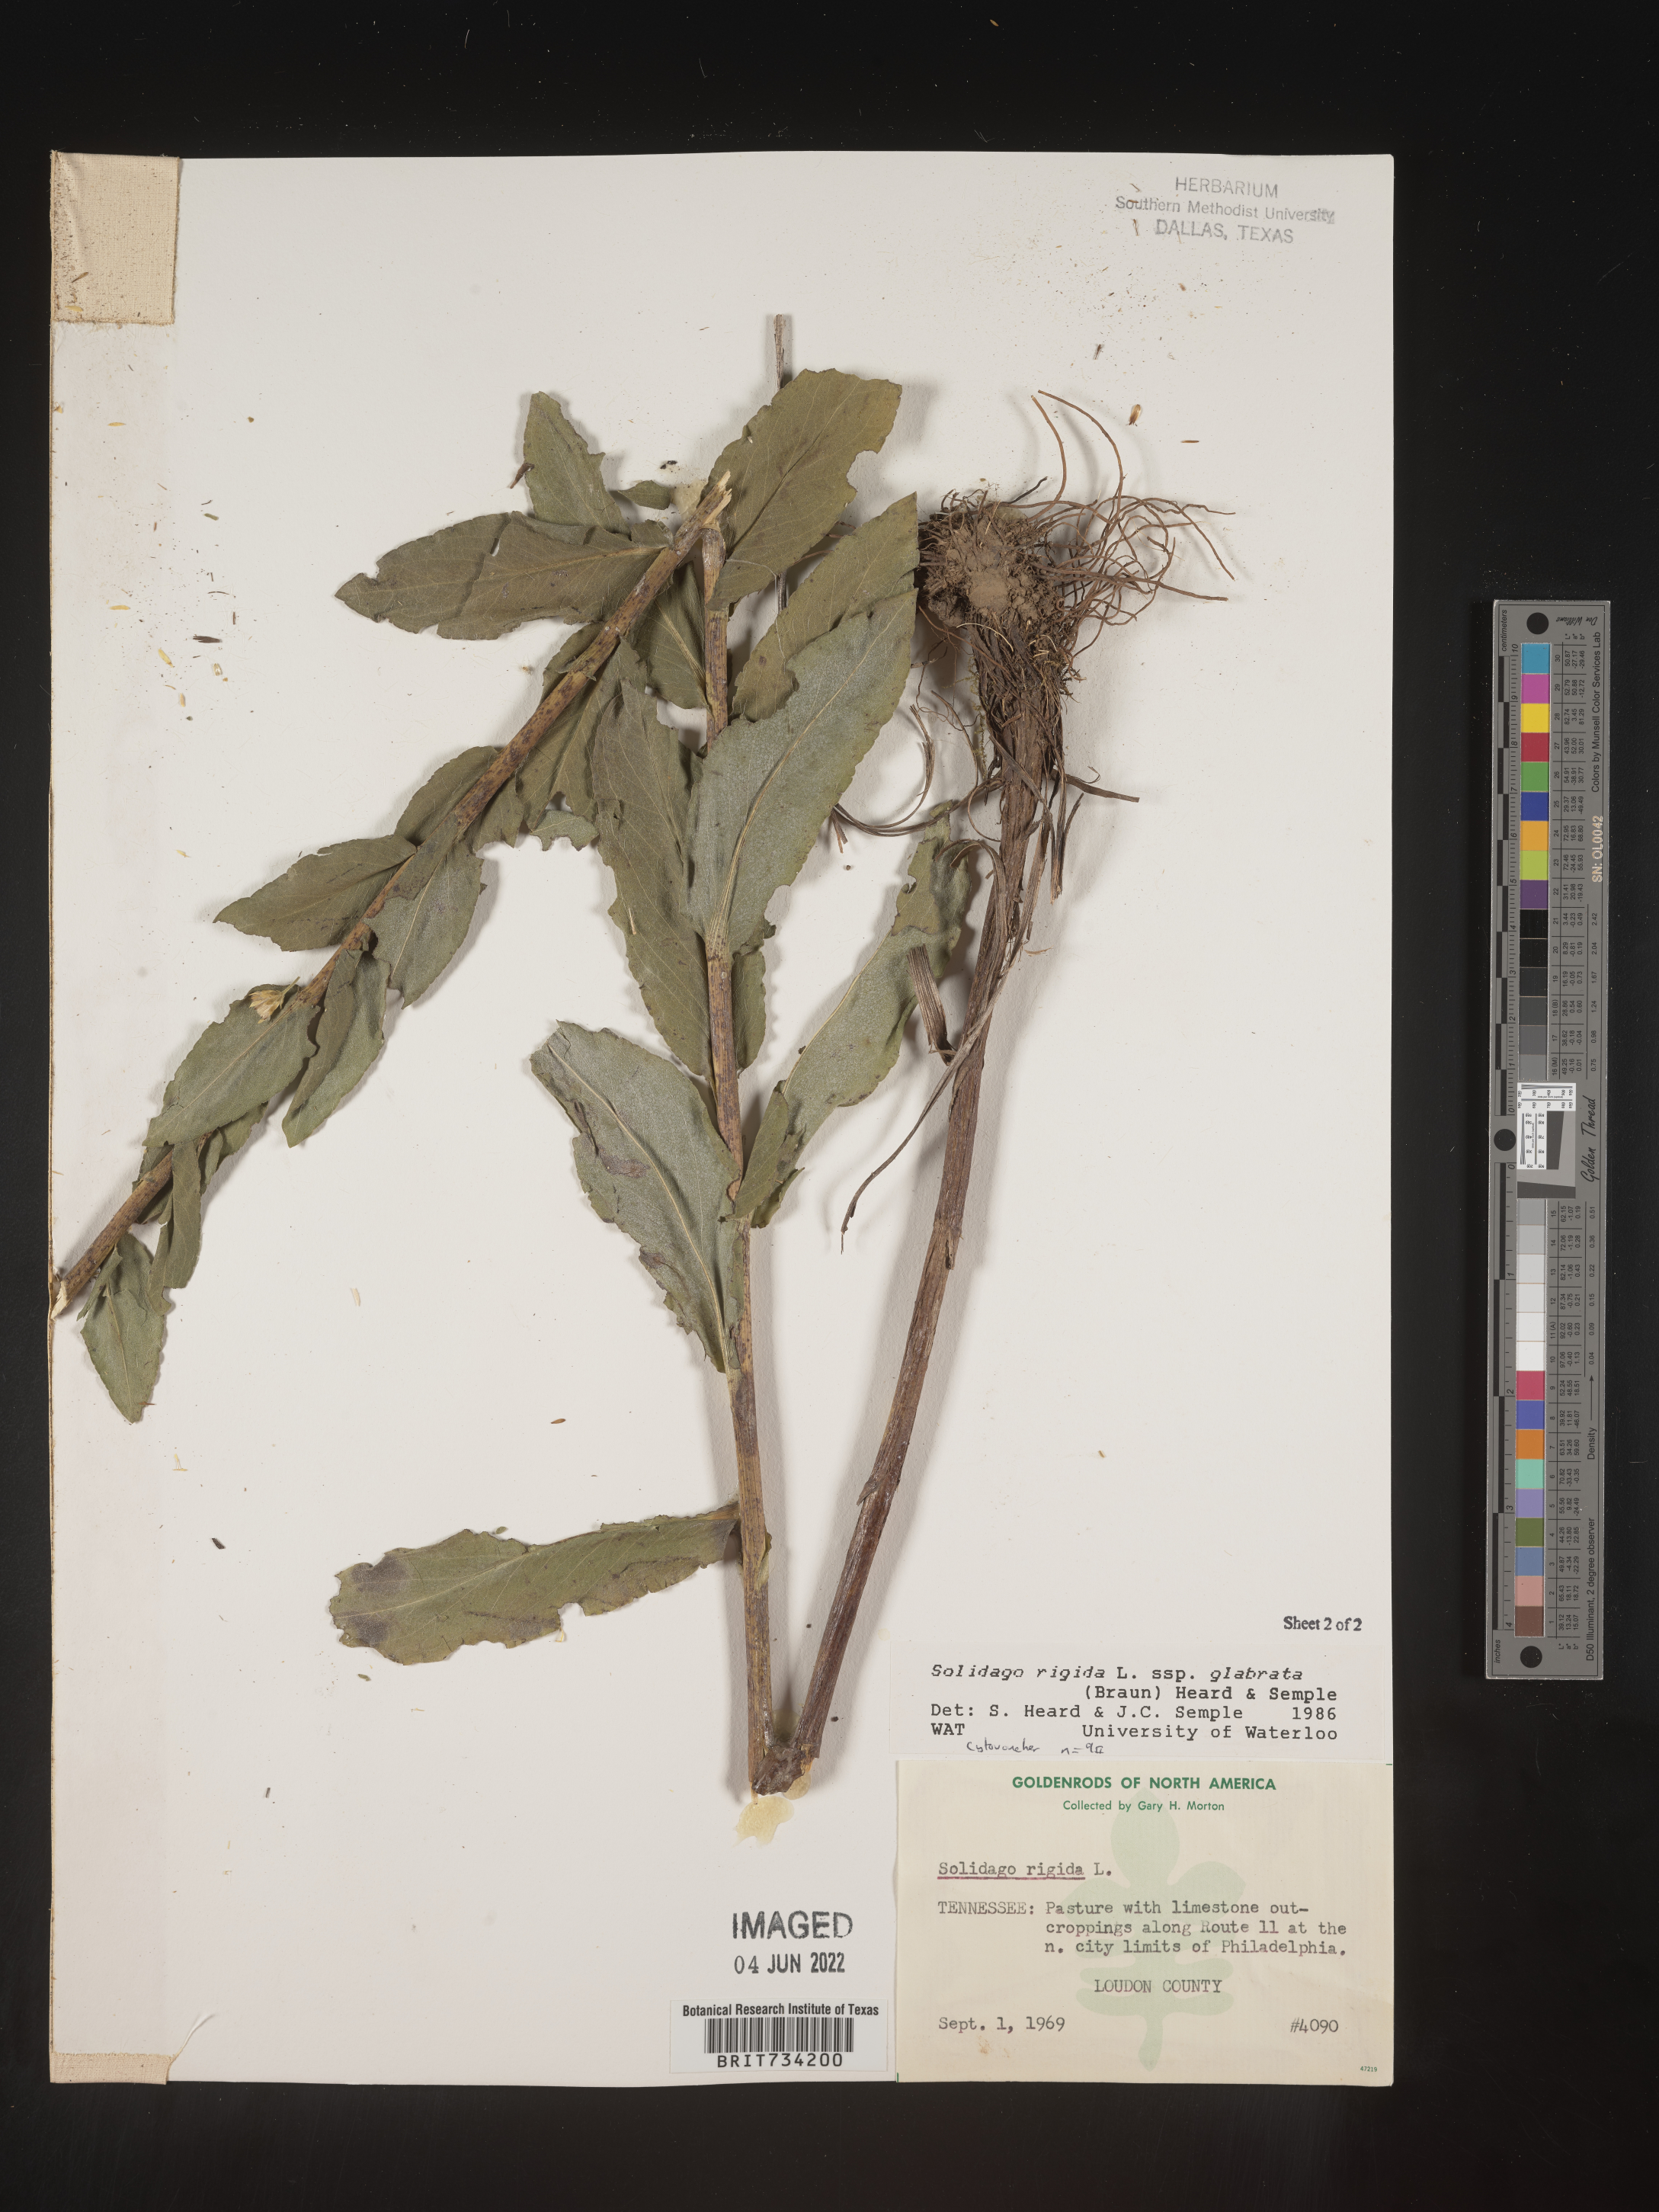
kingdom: Plantae
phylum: Tracheophyta
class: Magnoliopsida
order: Asterales
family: Asteraceae
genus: Solidago
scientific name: Solidago rigida
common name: Rigid goldenrod
